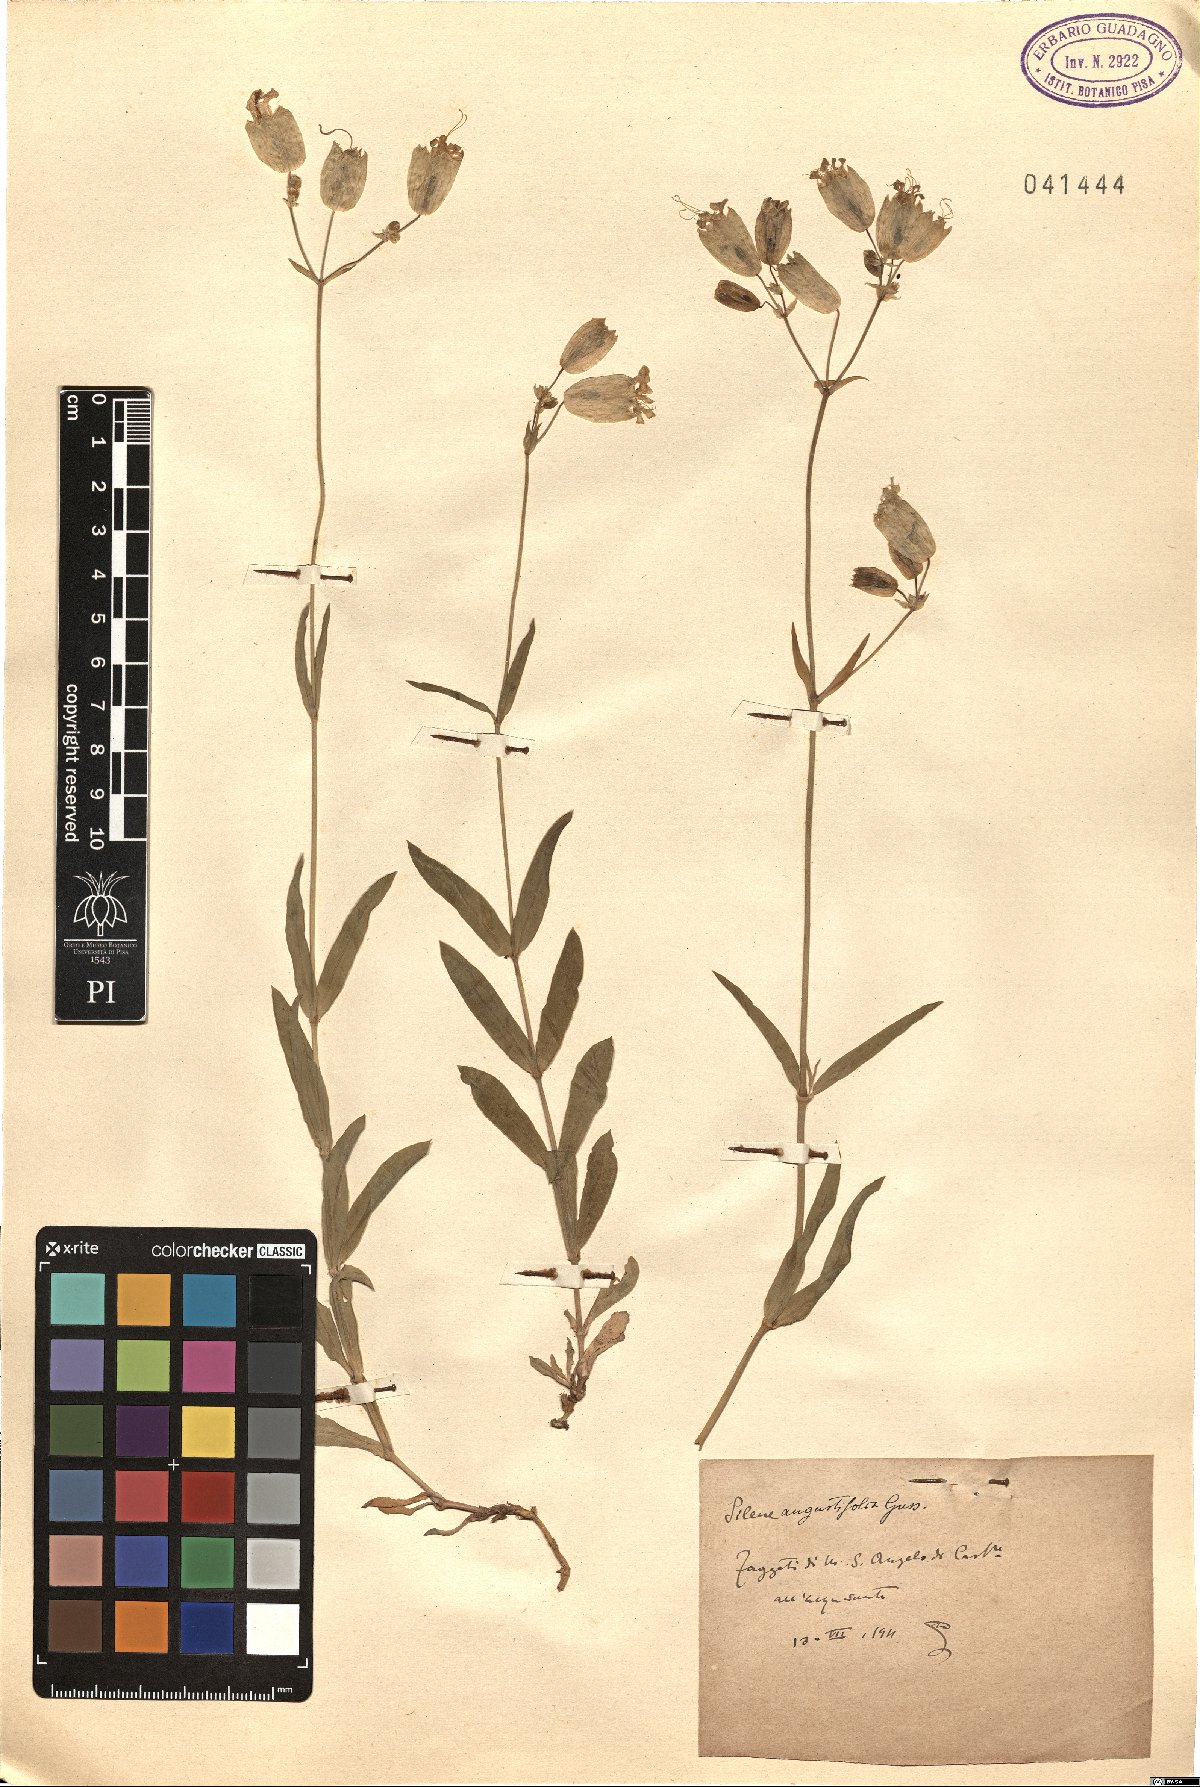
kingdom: Plantae
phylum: Tracheophyta
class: Magnoliopsida
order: Caryophyllales
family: Caryophyllaceae
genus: Silene
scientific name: Silene vulgaris
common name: Bladder campion
